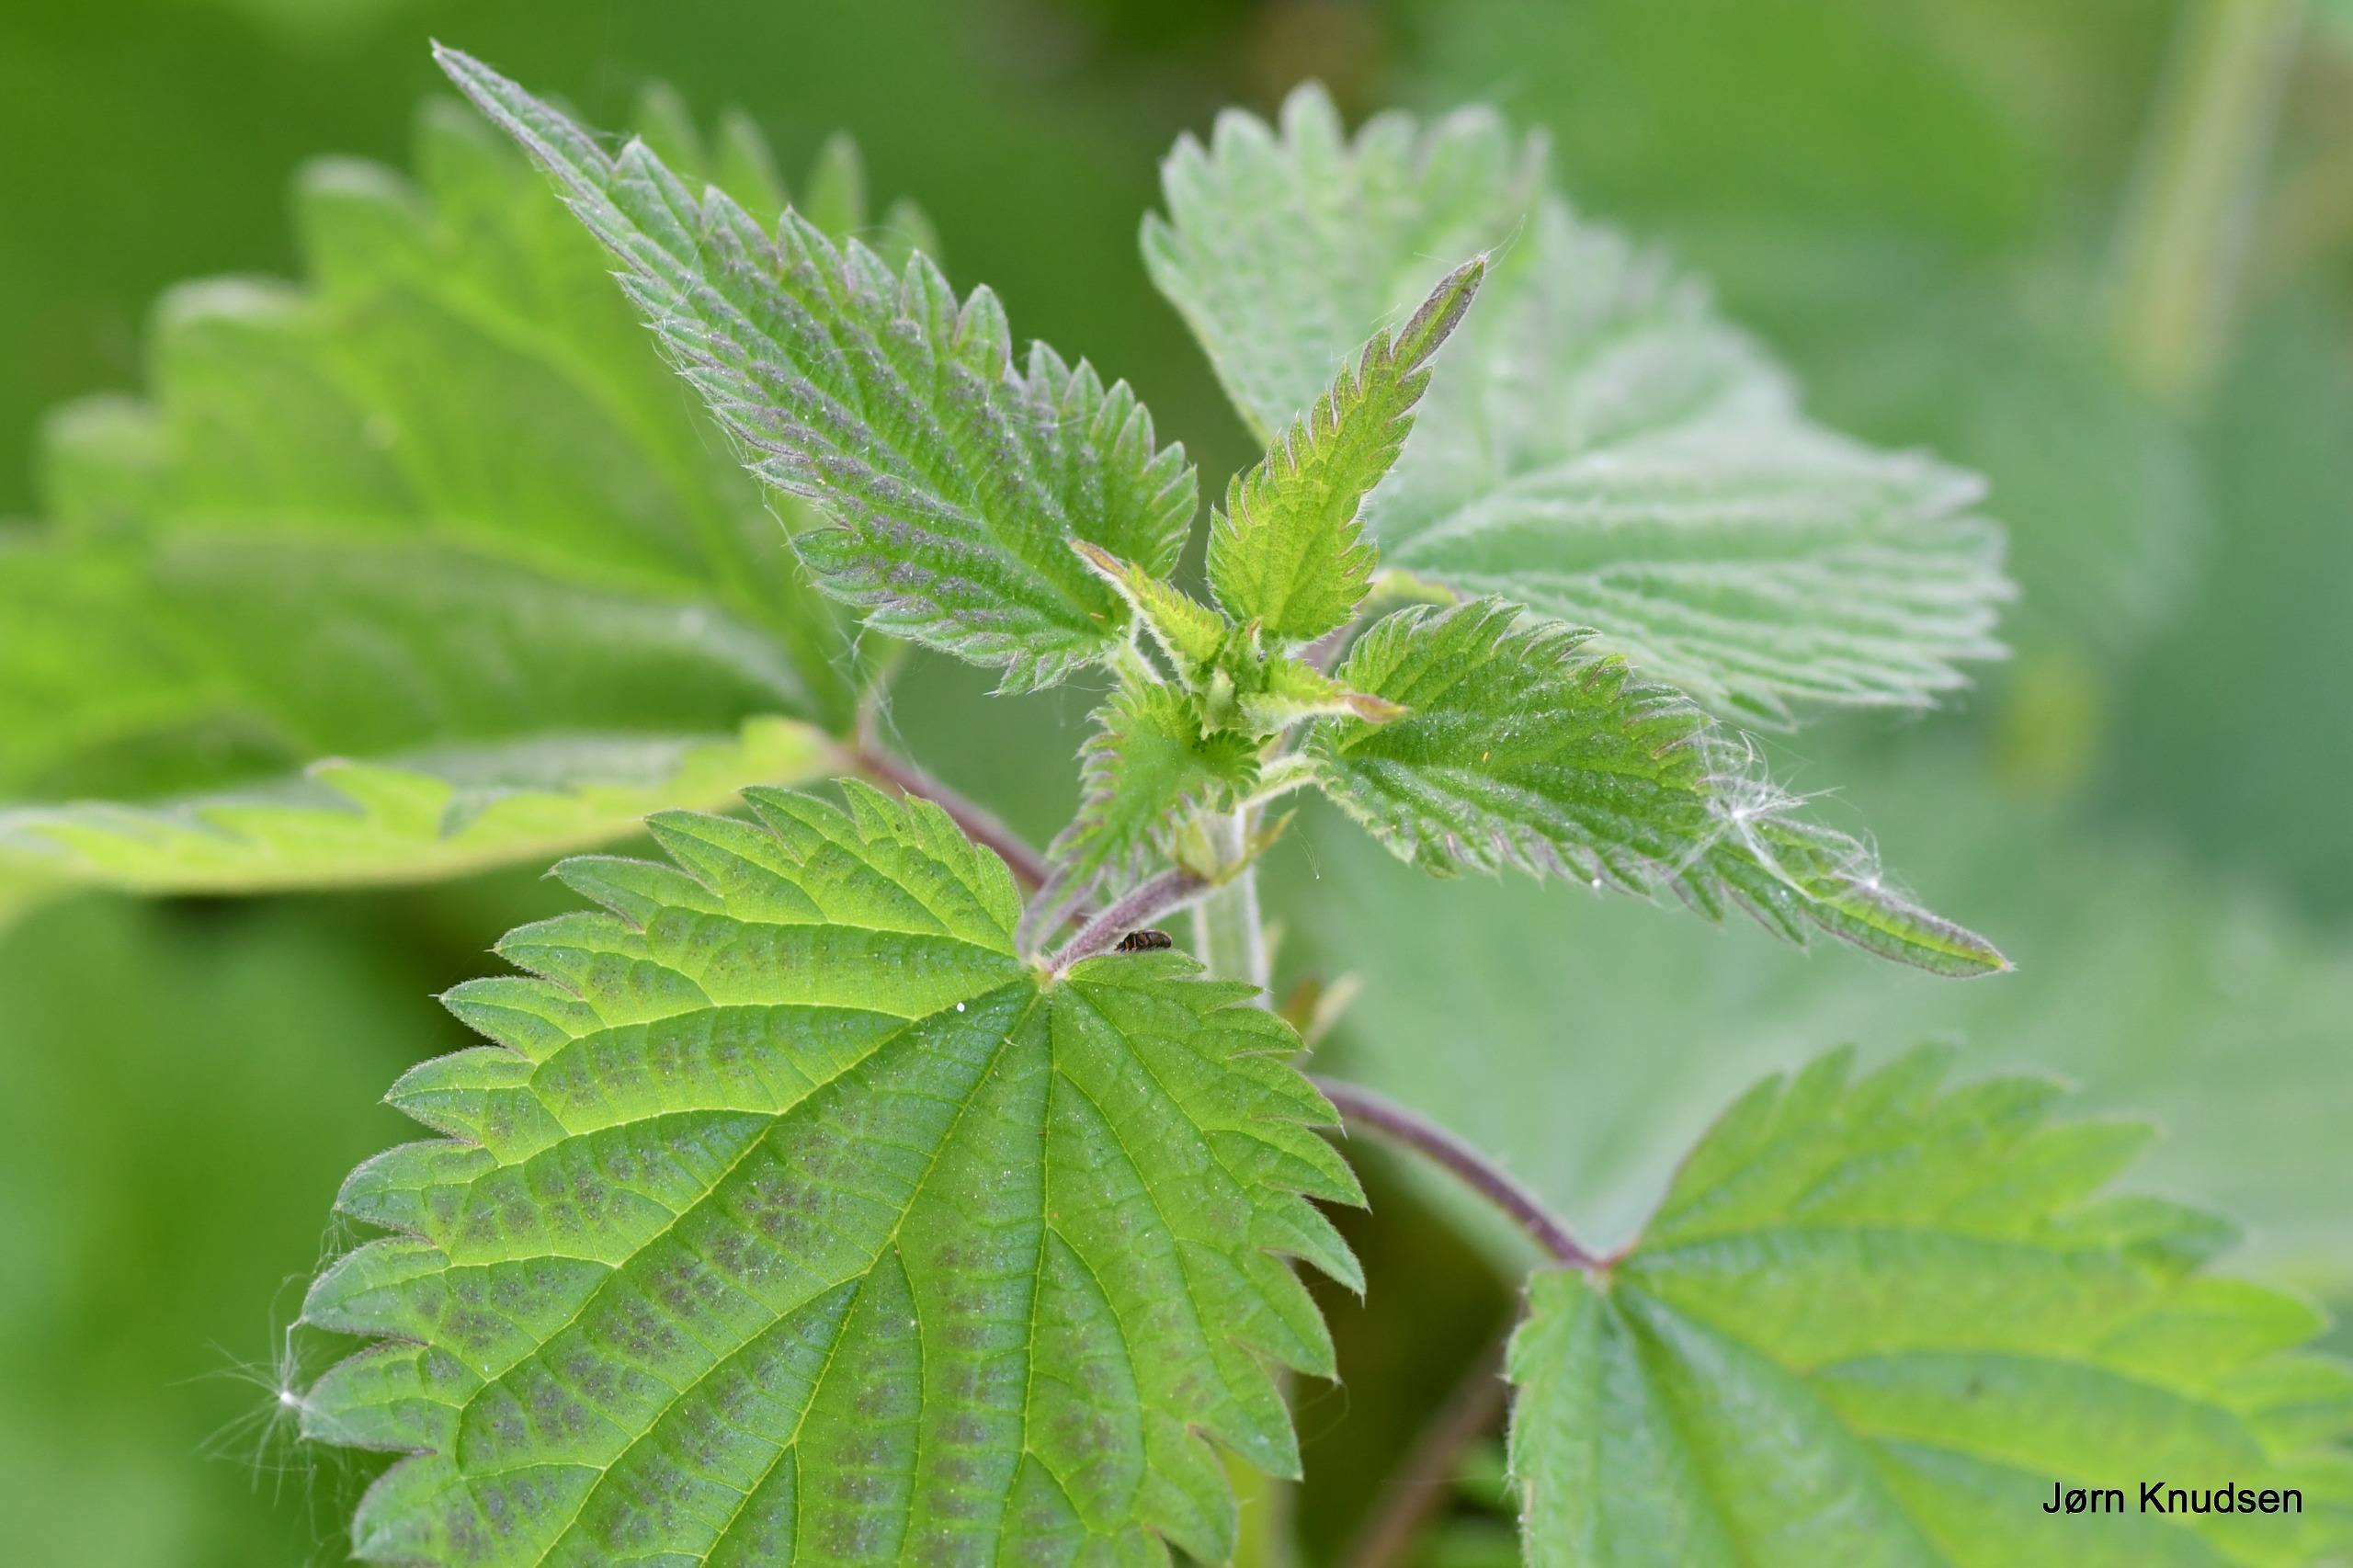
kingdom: Plantae
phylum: Tracheophyta
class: Magnoliopsida
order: Rosales
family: Urticaceae
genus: Urtica
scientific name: Urtica dioica
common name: Stor nælde
